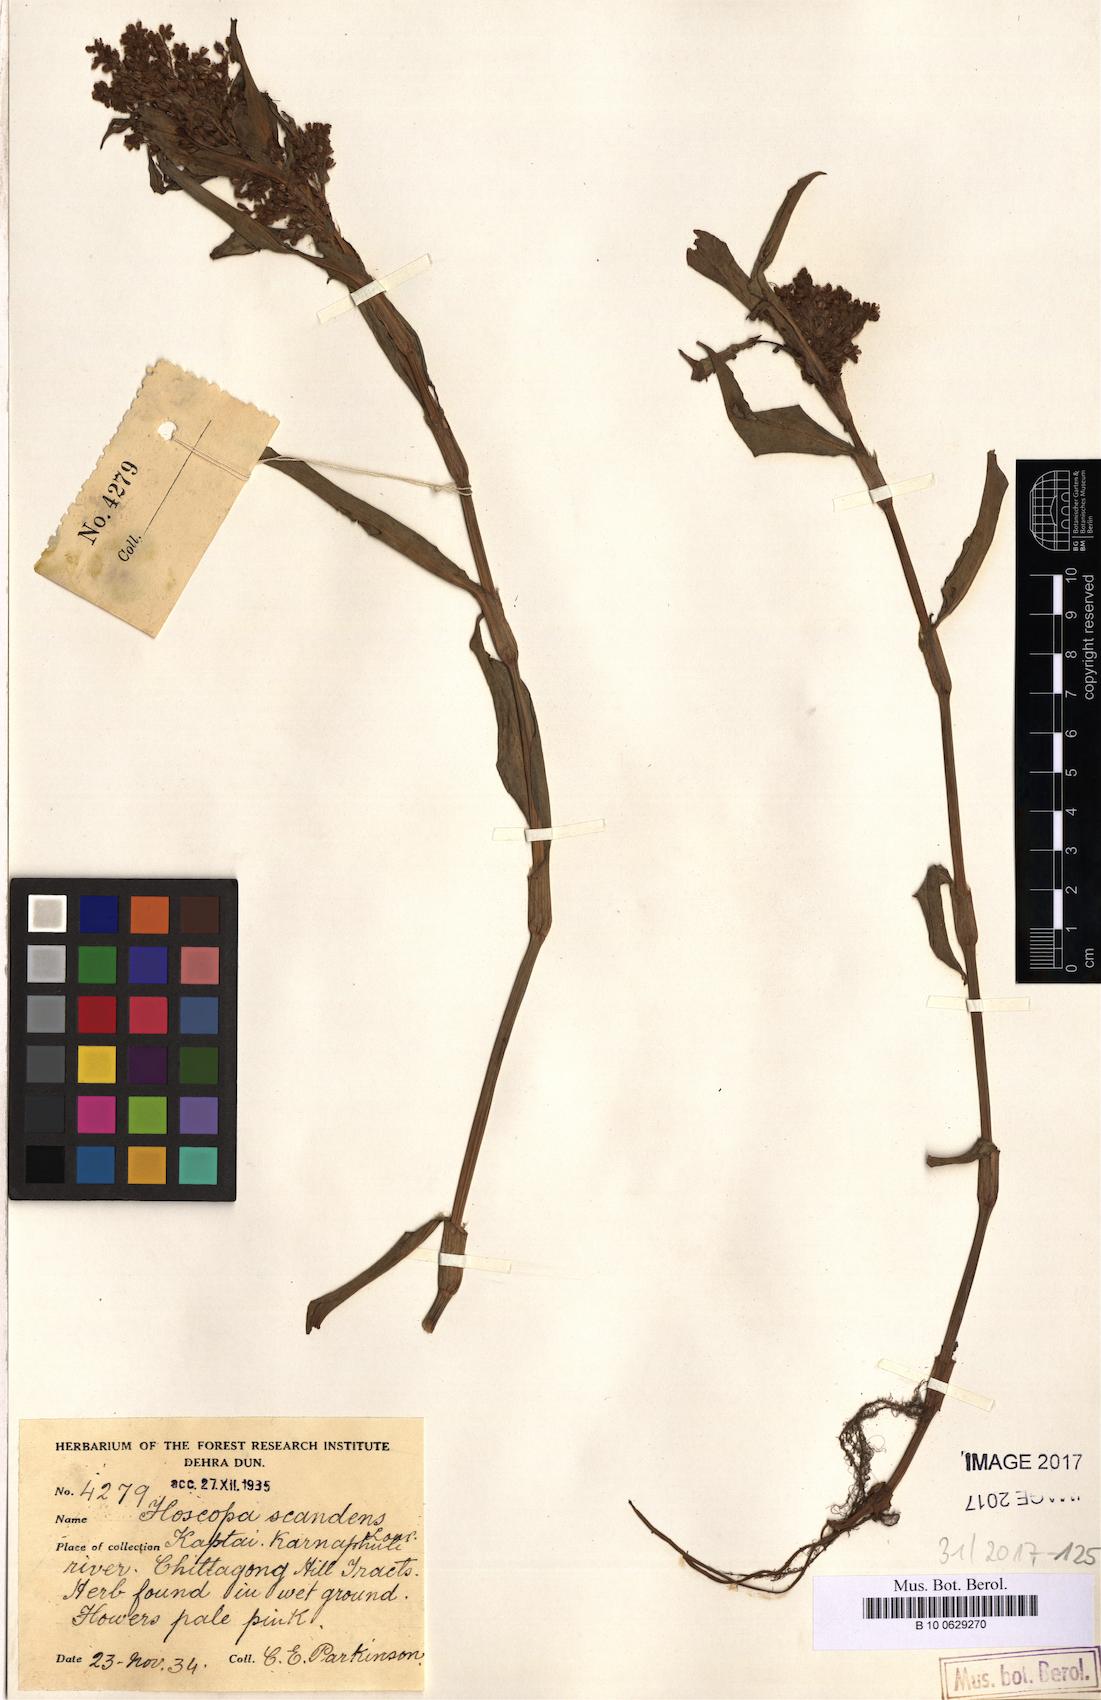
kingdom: Plantae
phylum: Tracheophyta
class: Liliopsida
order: Commelinales
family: Commelinaceae
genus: Floscopa
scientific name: Floscopa scandens
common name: Climbing flower cup
